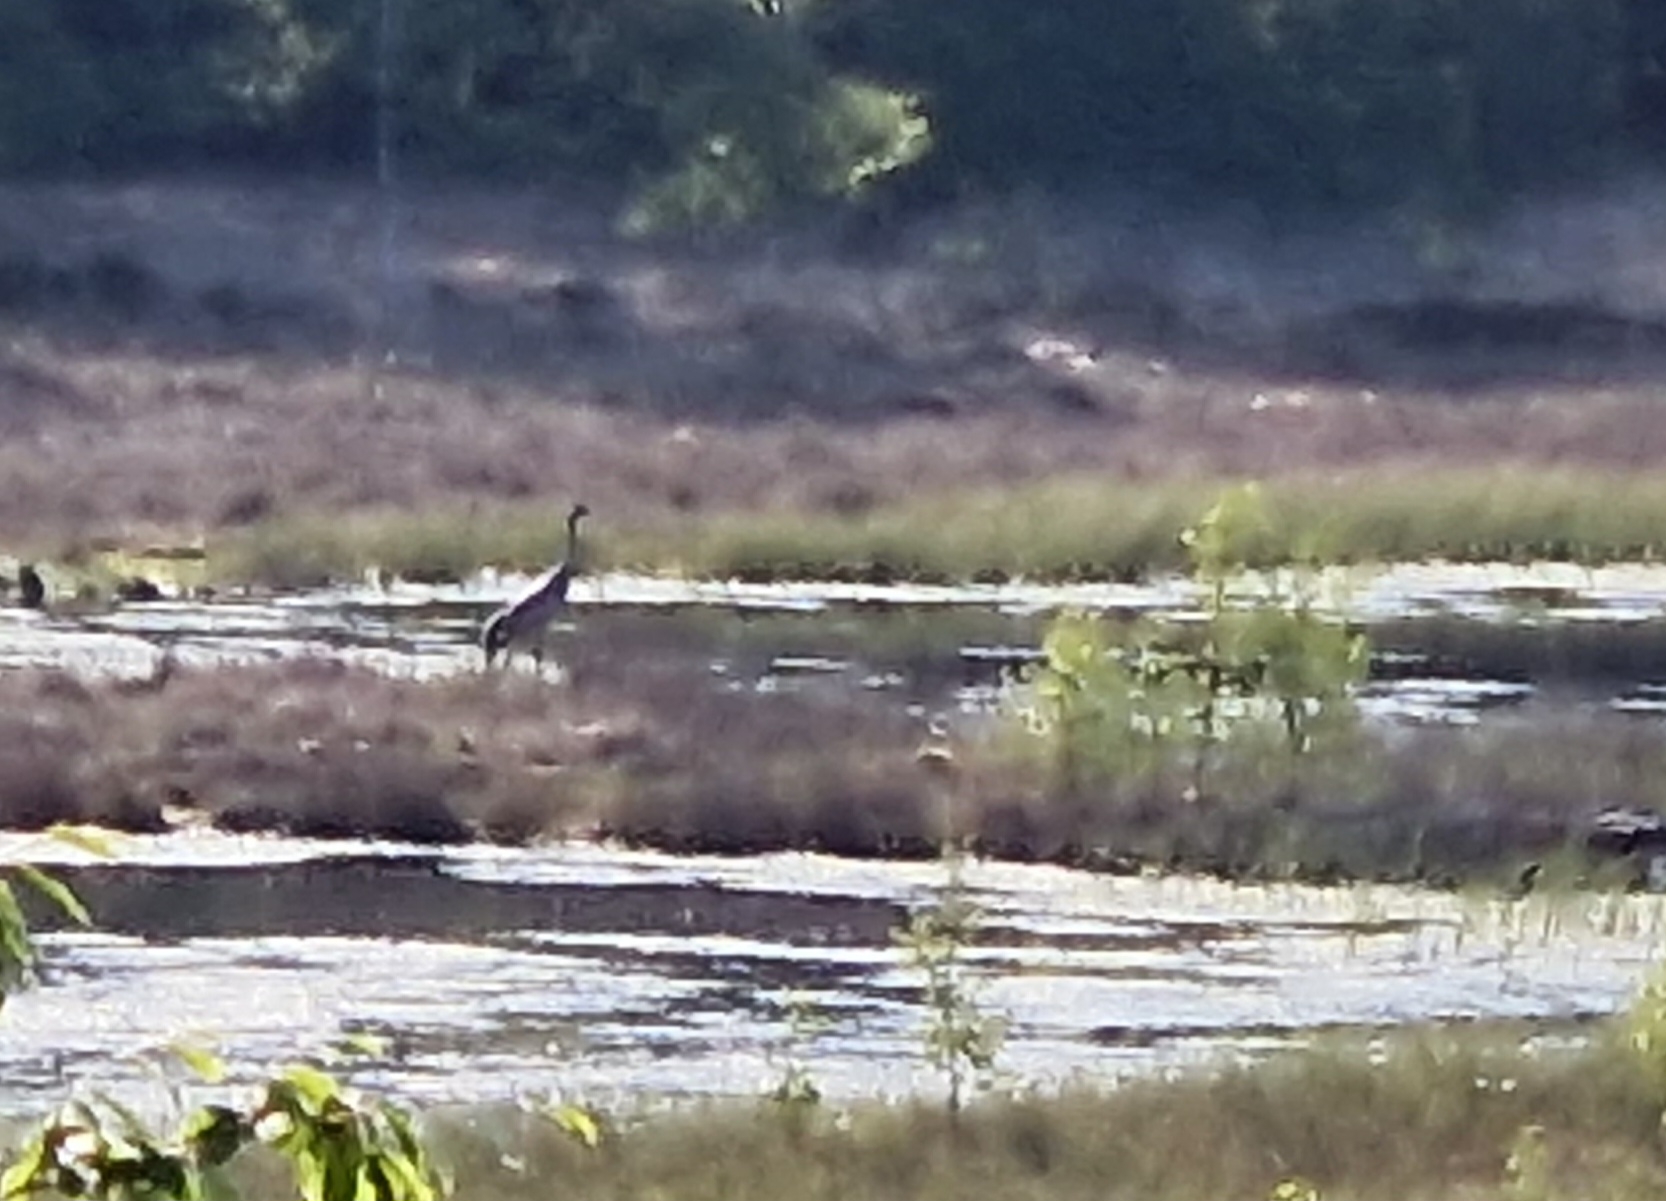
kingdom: Animalia
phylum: Chordata
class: Aves
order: Gruiformes
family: Gruidae
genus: Grus
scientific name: Grus grus
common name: Trane
